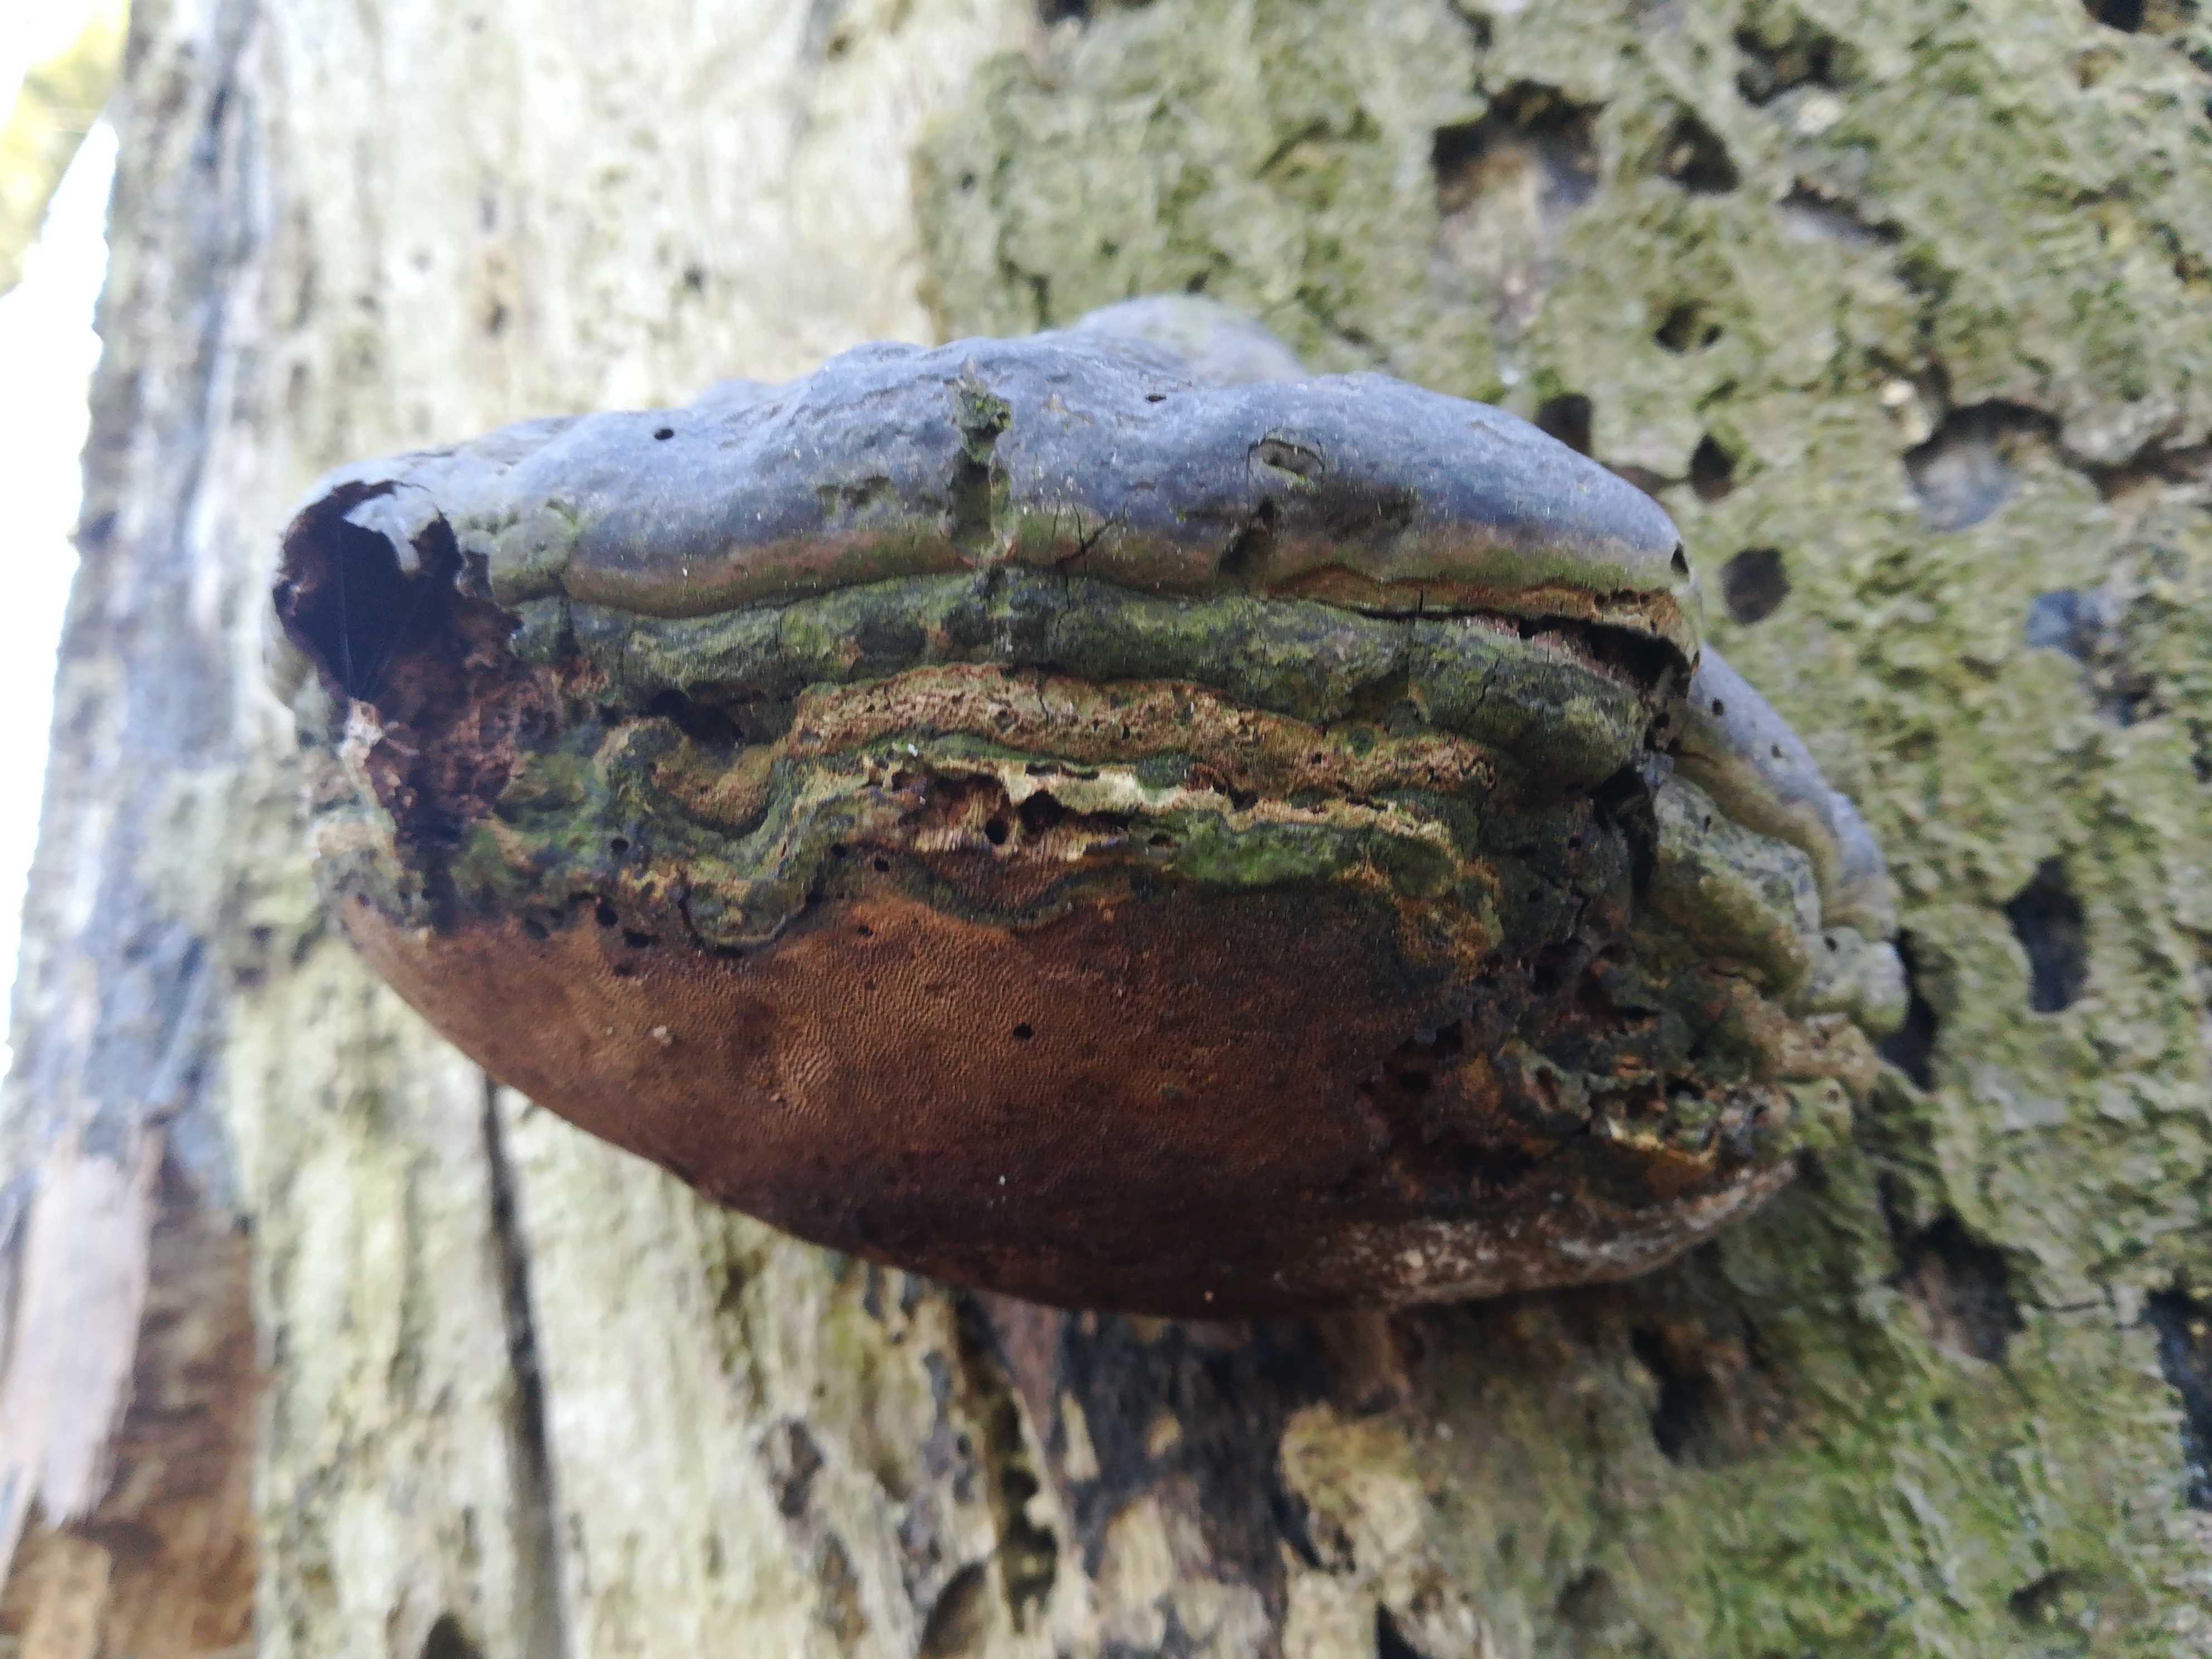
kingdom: Fungi
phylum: Basidiomycota
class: Agaricomycetes
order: Polyporales
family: Polyporaceae
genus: Fomes
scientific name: Fomes fomentarius
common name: tøndersvamp
